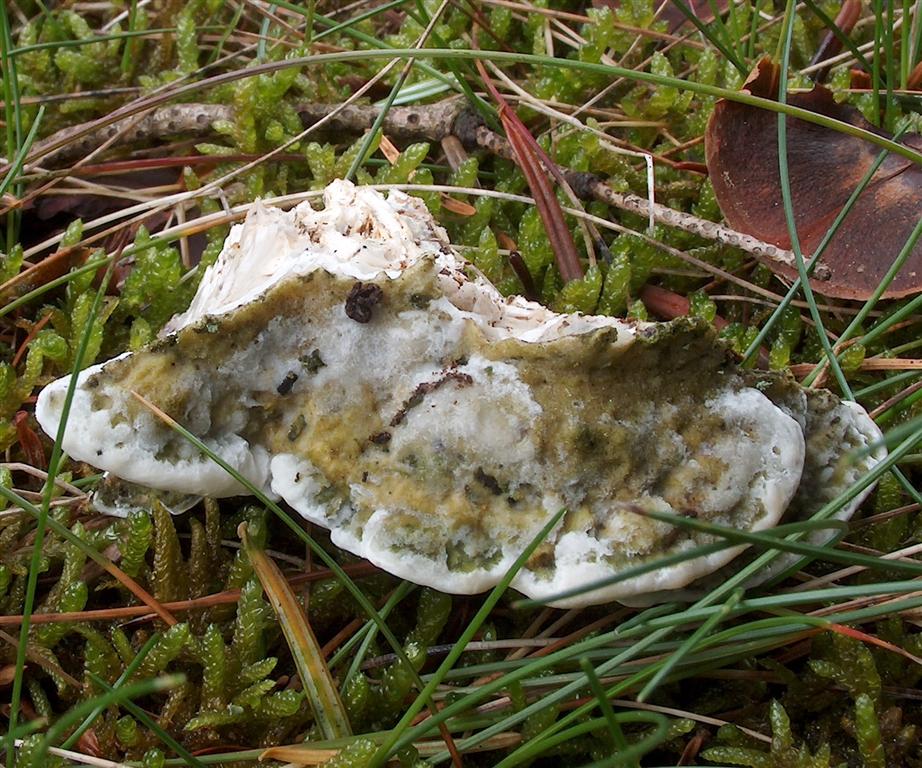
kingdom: Fungi
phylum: Basidiomycota
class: Agaricomycetes
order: Hymenochaetales
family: Oxyporaceae
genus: Oxyporus
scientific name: Oxyporus populinus
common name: sammenvokset trylleporesvamp
